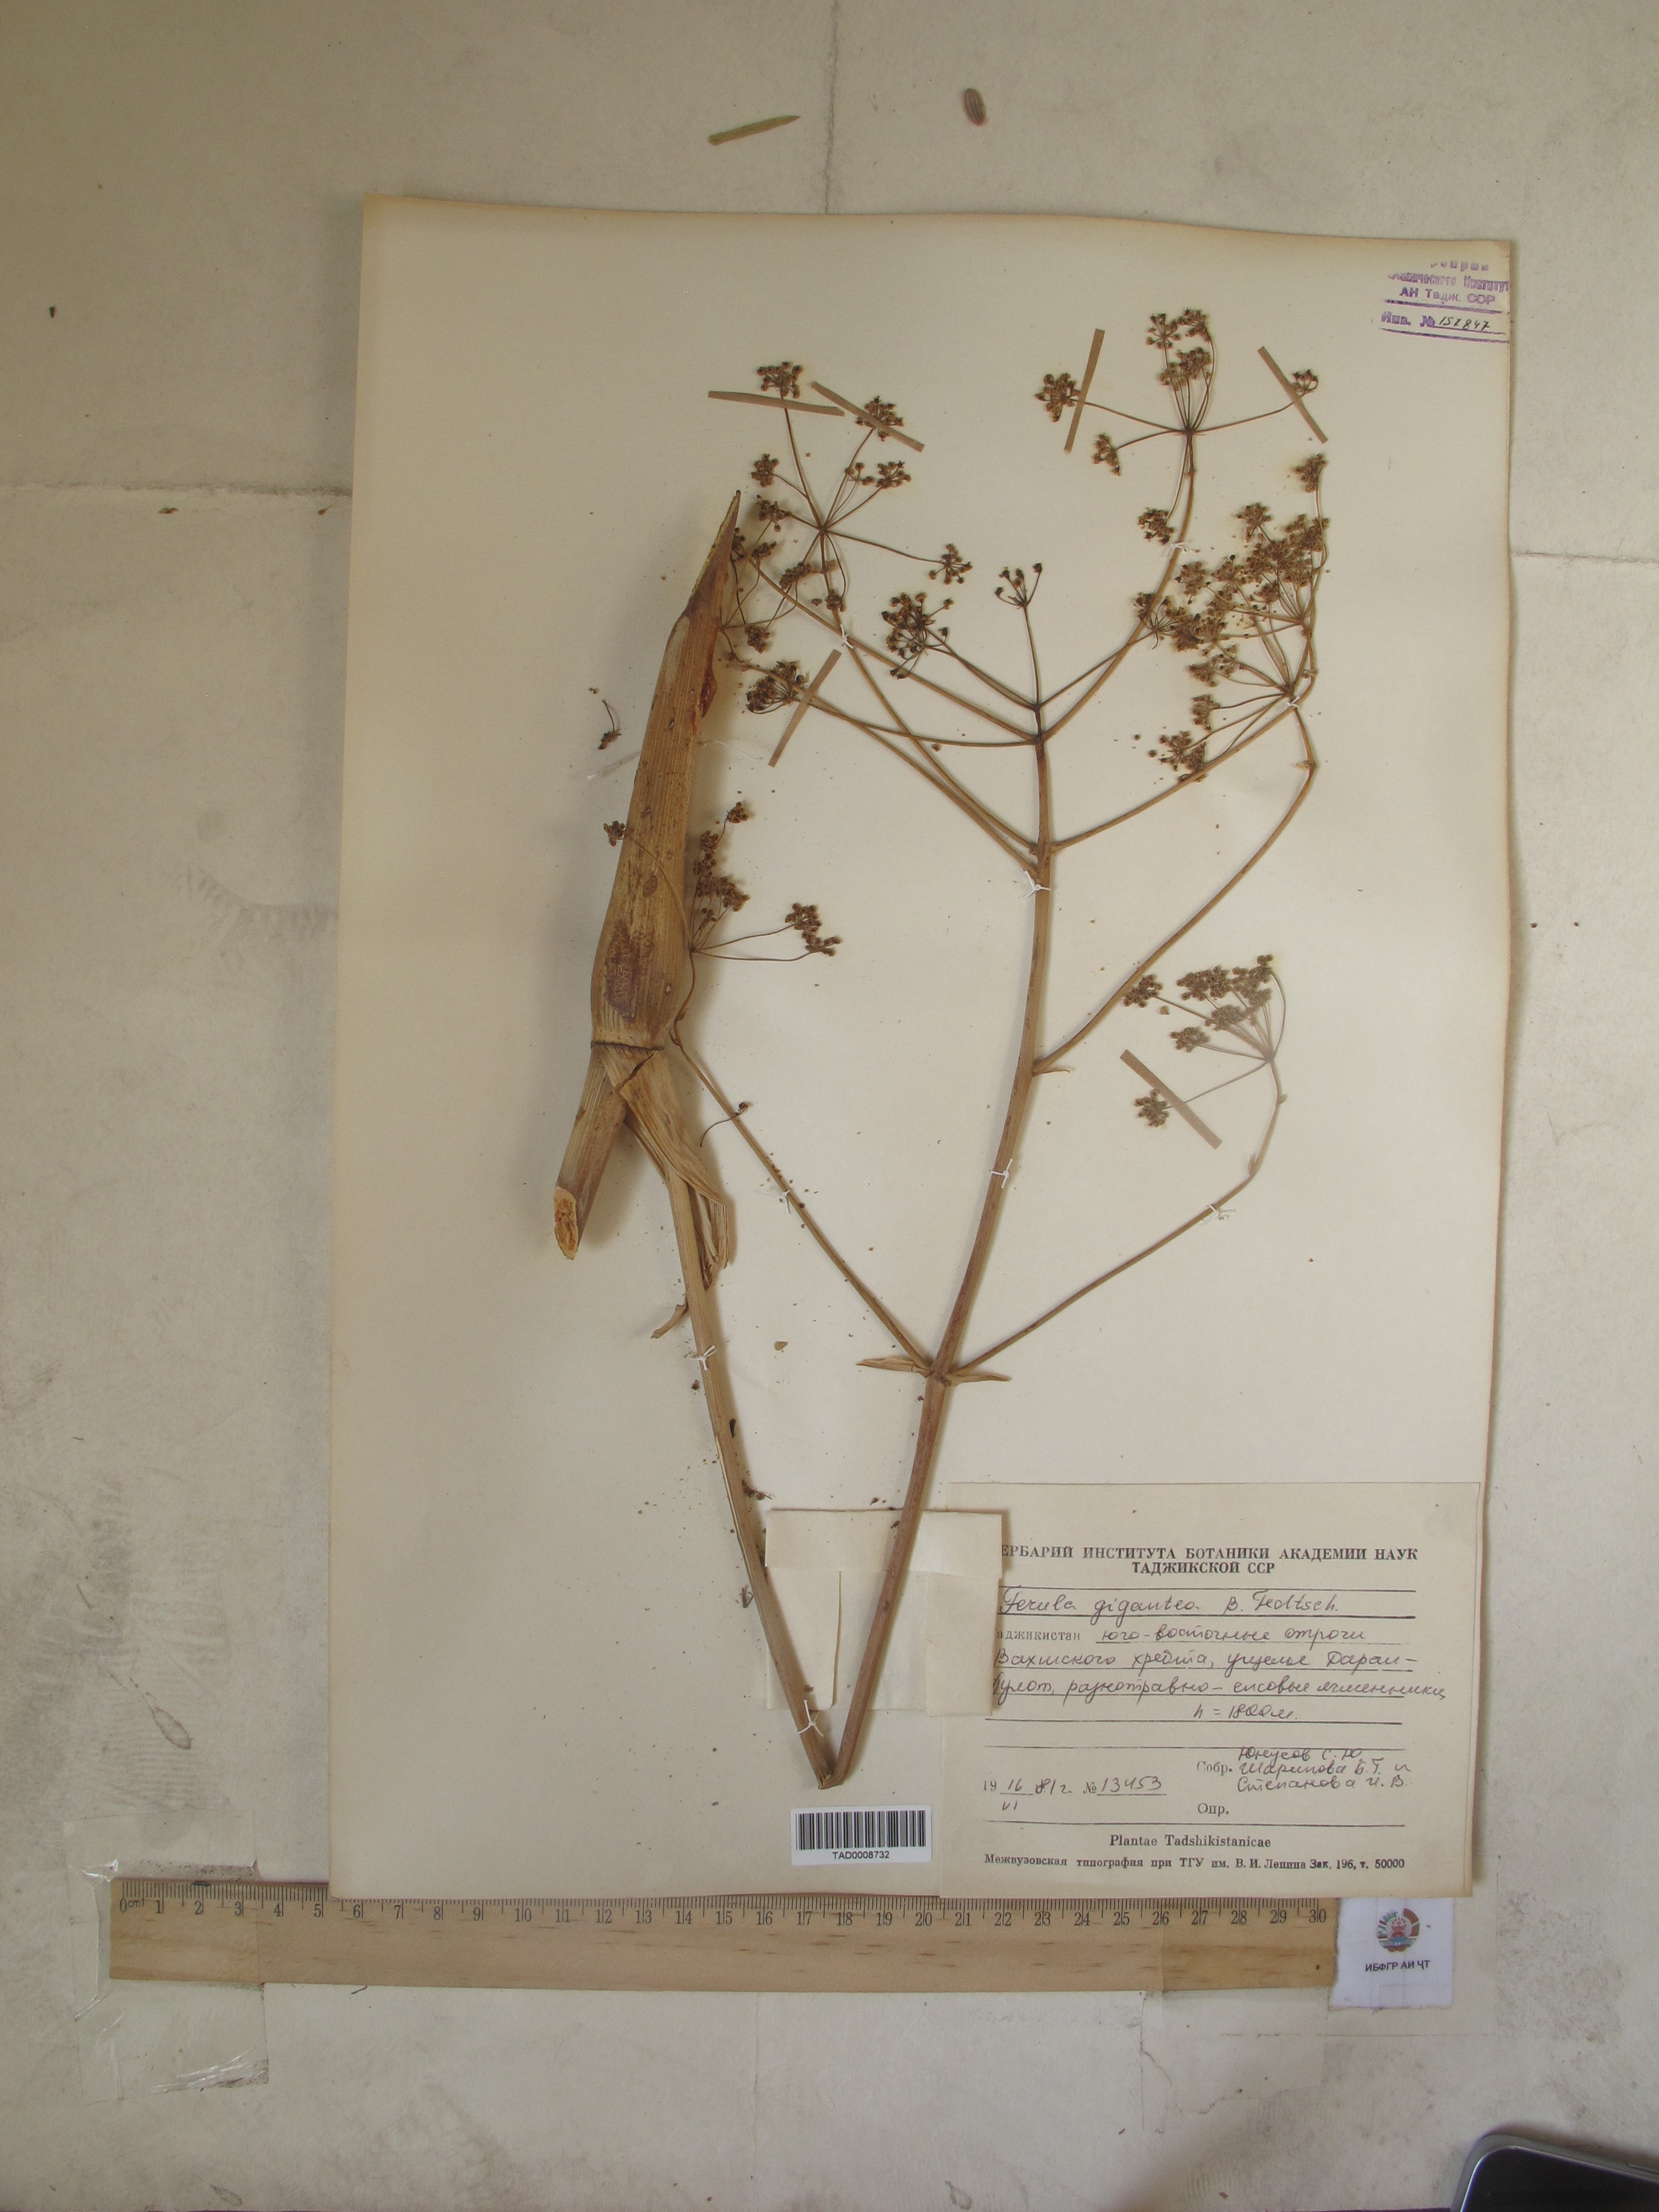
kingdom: Plantae
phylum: Tracheophyta
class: Magnoliopsida
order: Apiales
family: Apiaceae
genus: Ferula
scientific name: Ferula gigantea
